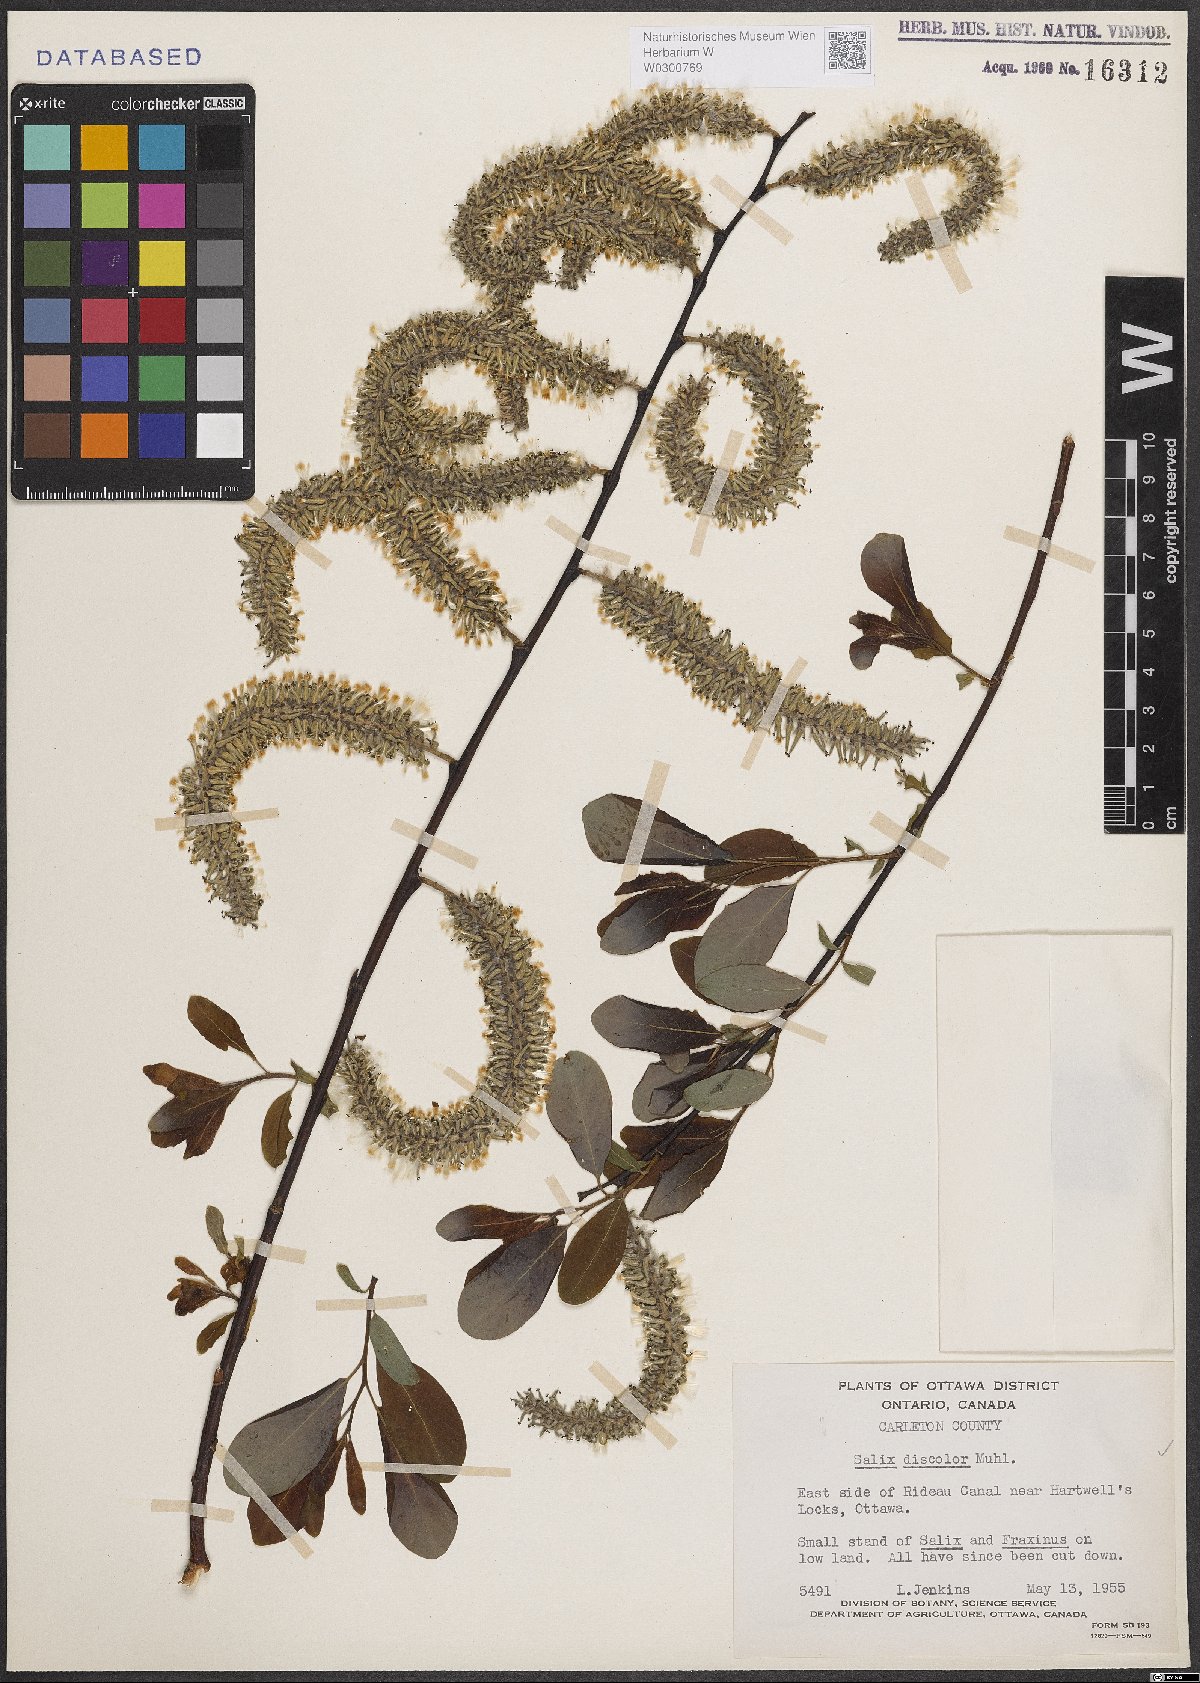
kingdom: Plantae
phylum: Tracheophyta
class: Magnoliopsida
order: Malpighiales
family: Salicaceae
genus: Salix
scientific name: Salix discolor
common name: Glaucous willow
